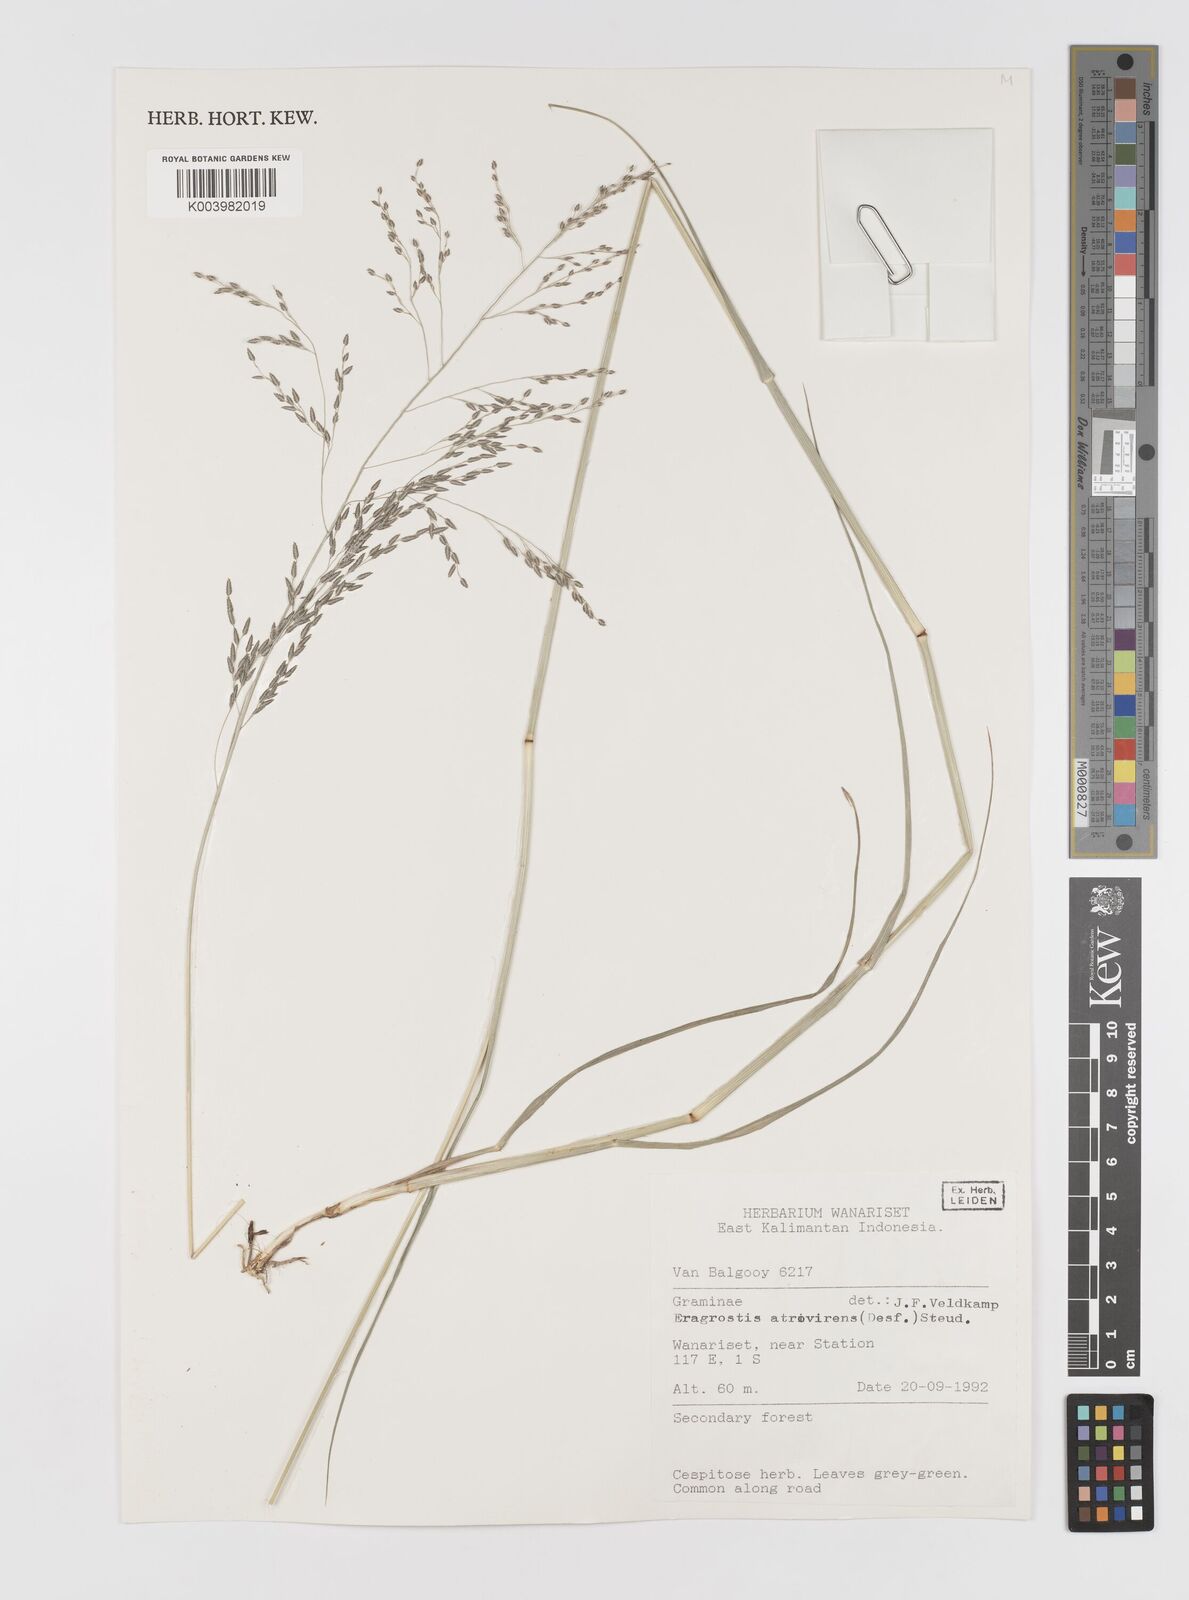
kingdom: Plantae
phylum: Tracheophyta
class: Liliopsida
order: Poales
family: Poaceae
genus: Eragrostis
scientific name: Eragrostis atrovirens
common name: Thalia lovegrass
